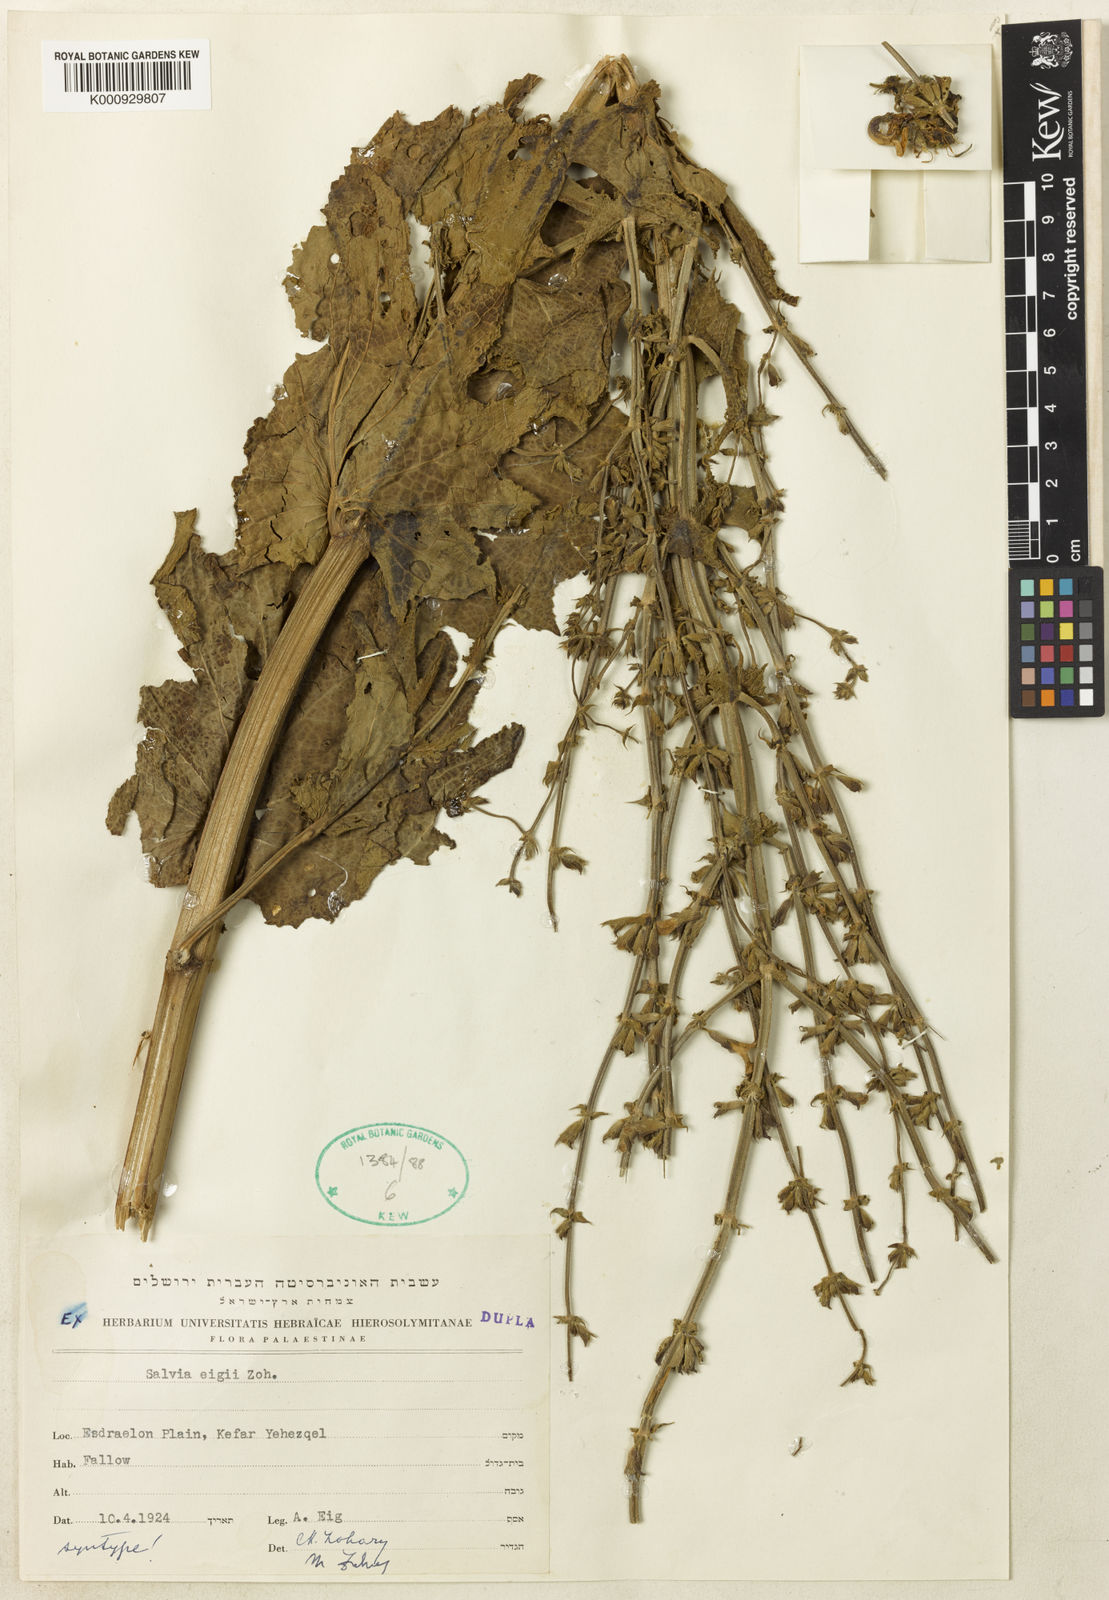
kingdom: Plantae
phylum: Tracheophyta
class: Magnoliopsida
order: Lamiales
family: Lamiaceae
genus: Salvia
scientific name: Salvia eigii
